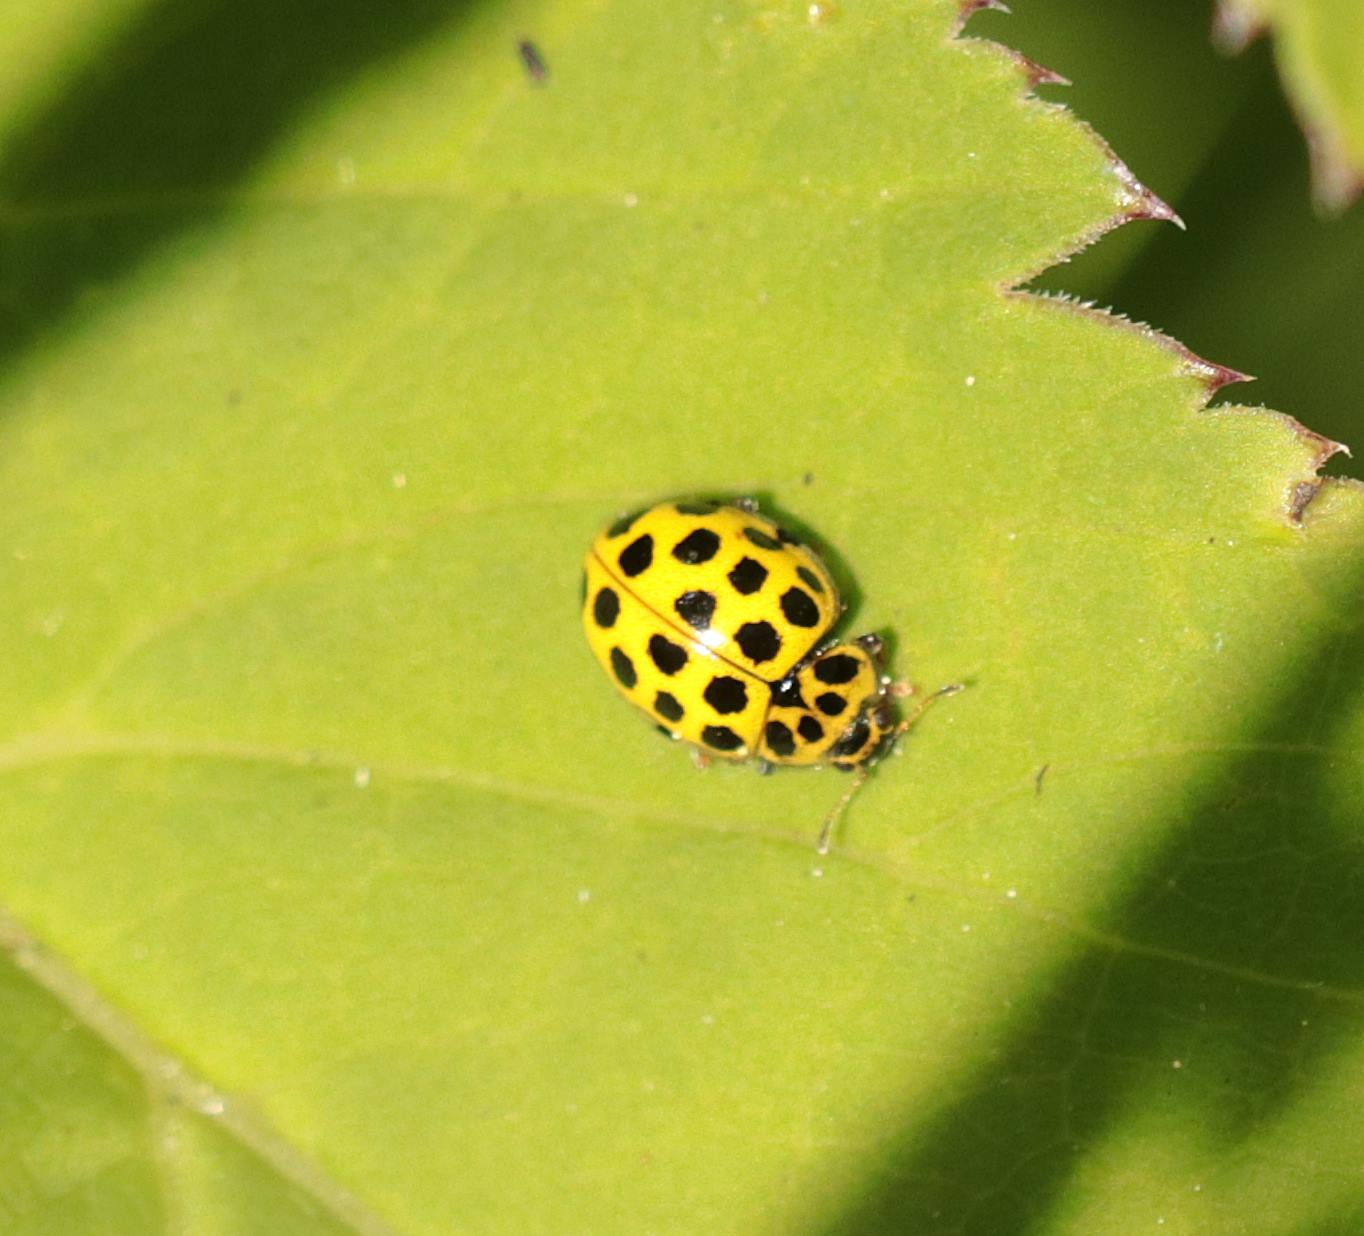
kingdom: Animalia
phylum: Arthropoda
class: Insecta
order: Coleoptera
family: Coccinellidae
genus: Psyllobora
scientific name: Psyllobora vigintiduopunctata
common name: Toogtyveplettet mariehøne
